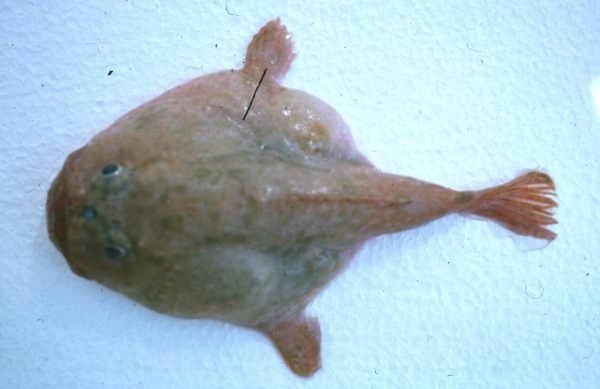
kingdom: Animalia
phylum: Chordata
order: Lophiiformes
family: Chaunacidae
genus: Chaunax
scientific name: Chaunax penicillatus
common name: Fluffylure frogmouth
